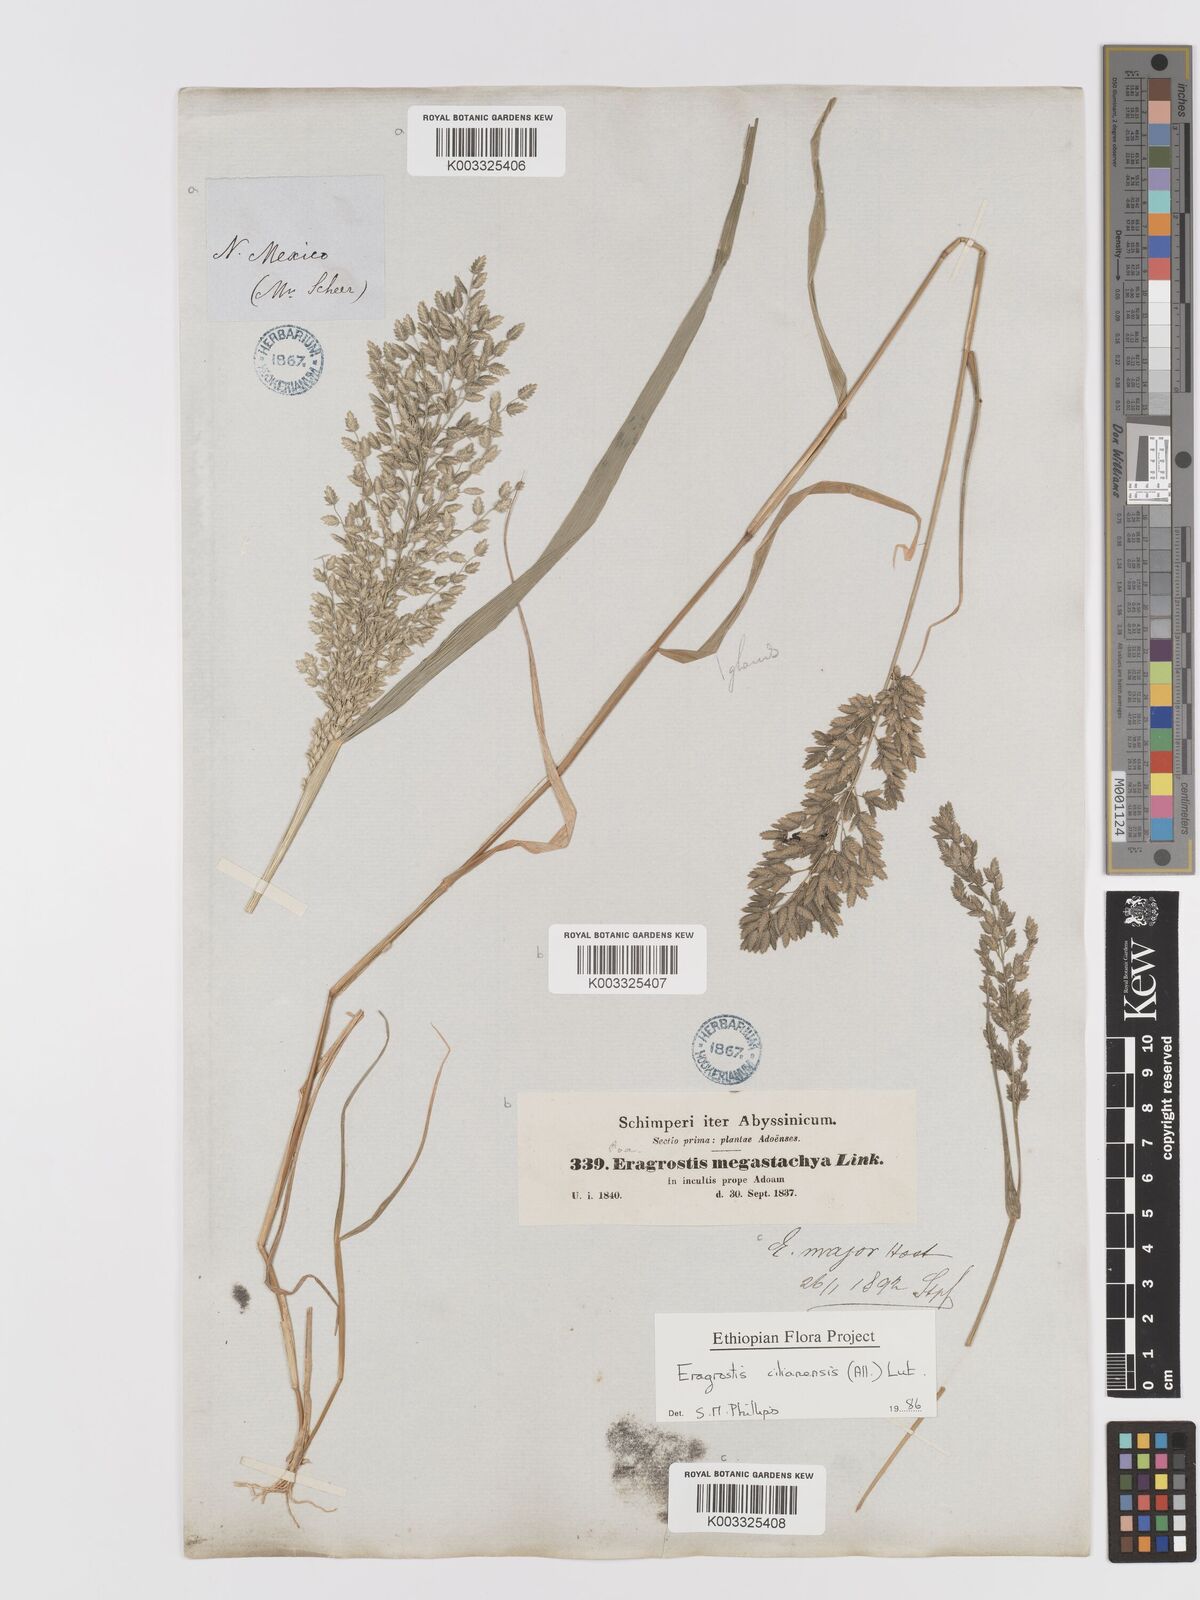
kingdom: Plantae
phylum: Tracheophyta
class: Liliopsida
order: Poales
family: Poaceae
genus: Eragrostis
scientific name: Eragrostis cilianensis
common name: Stinkgrass
